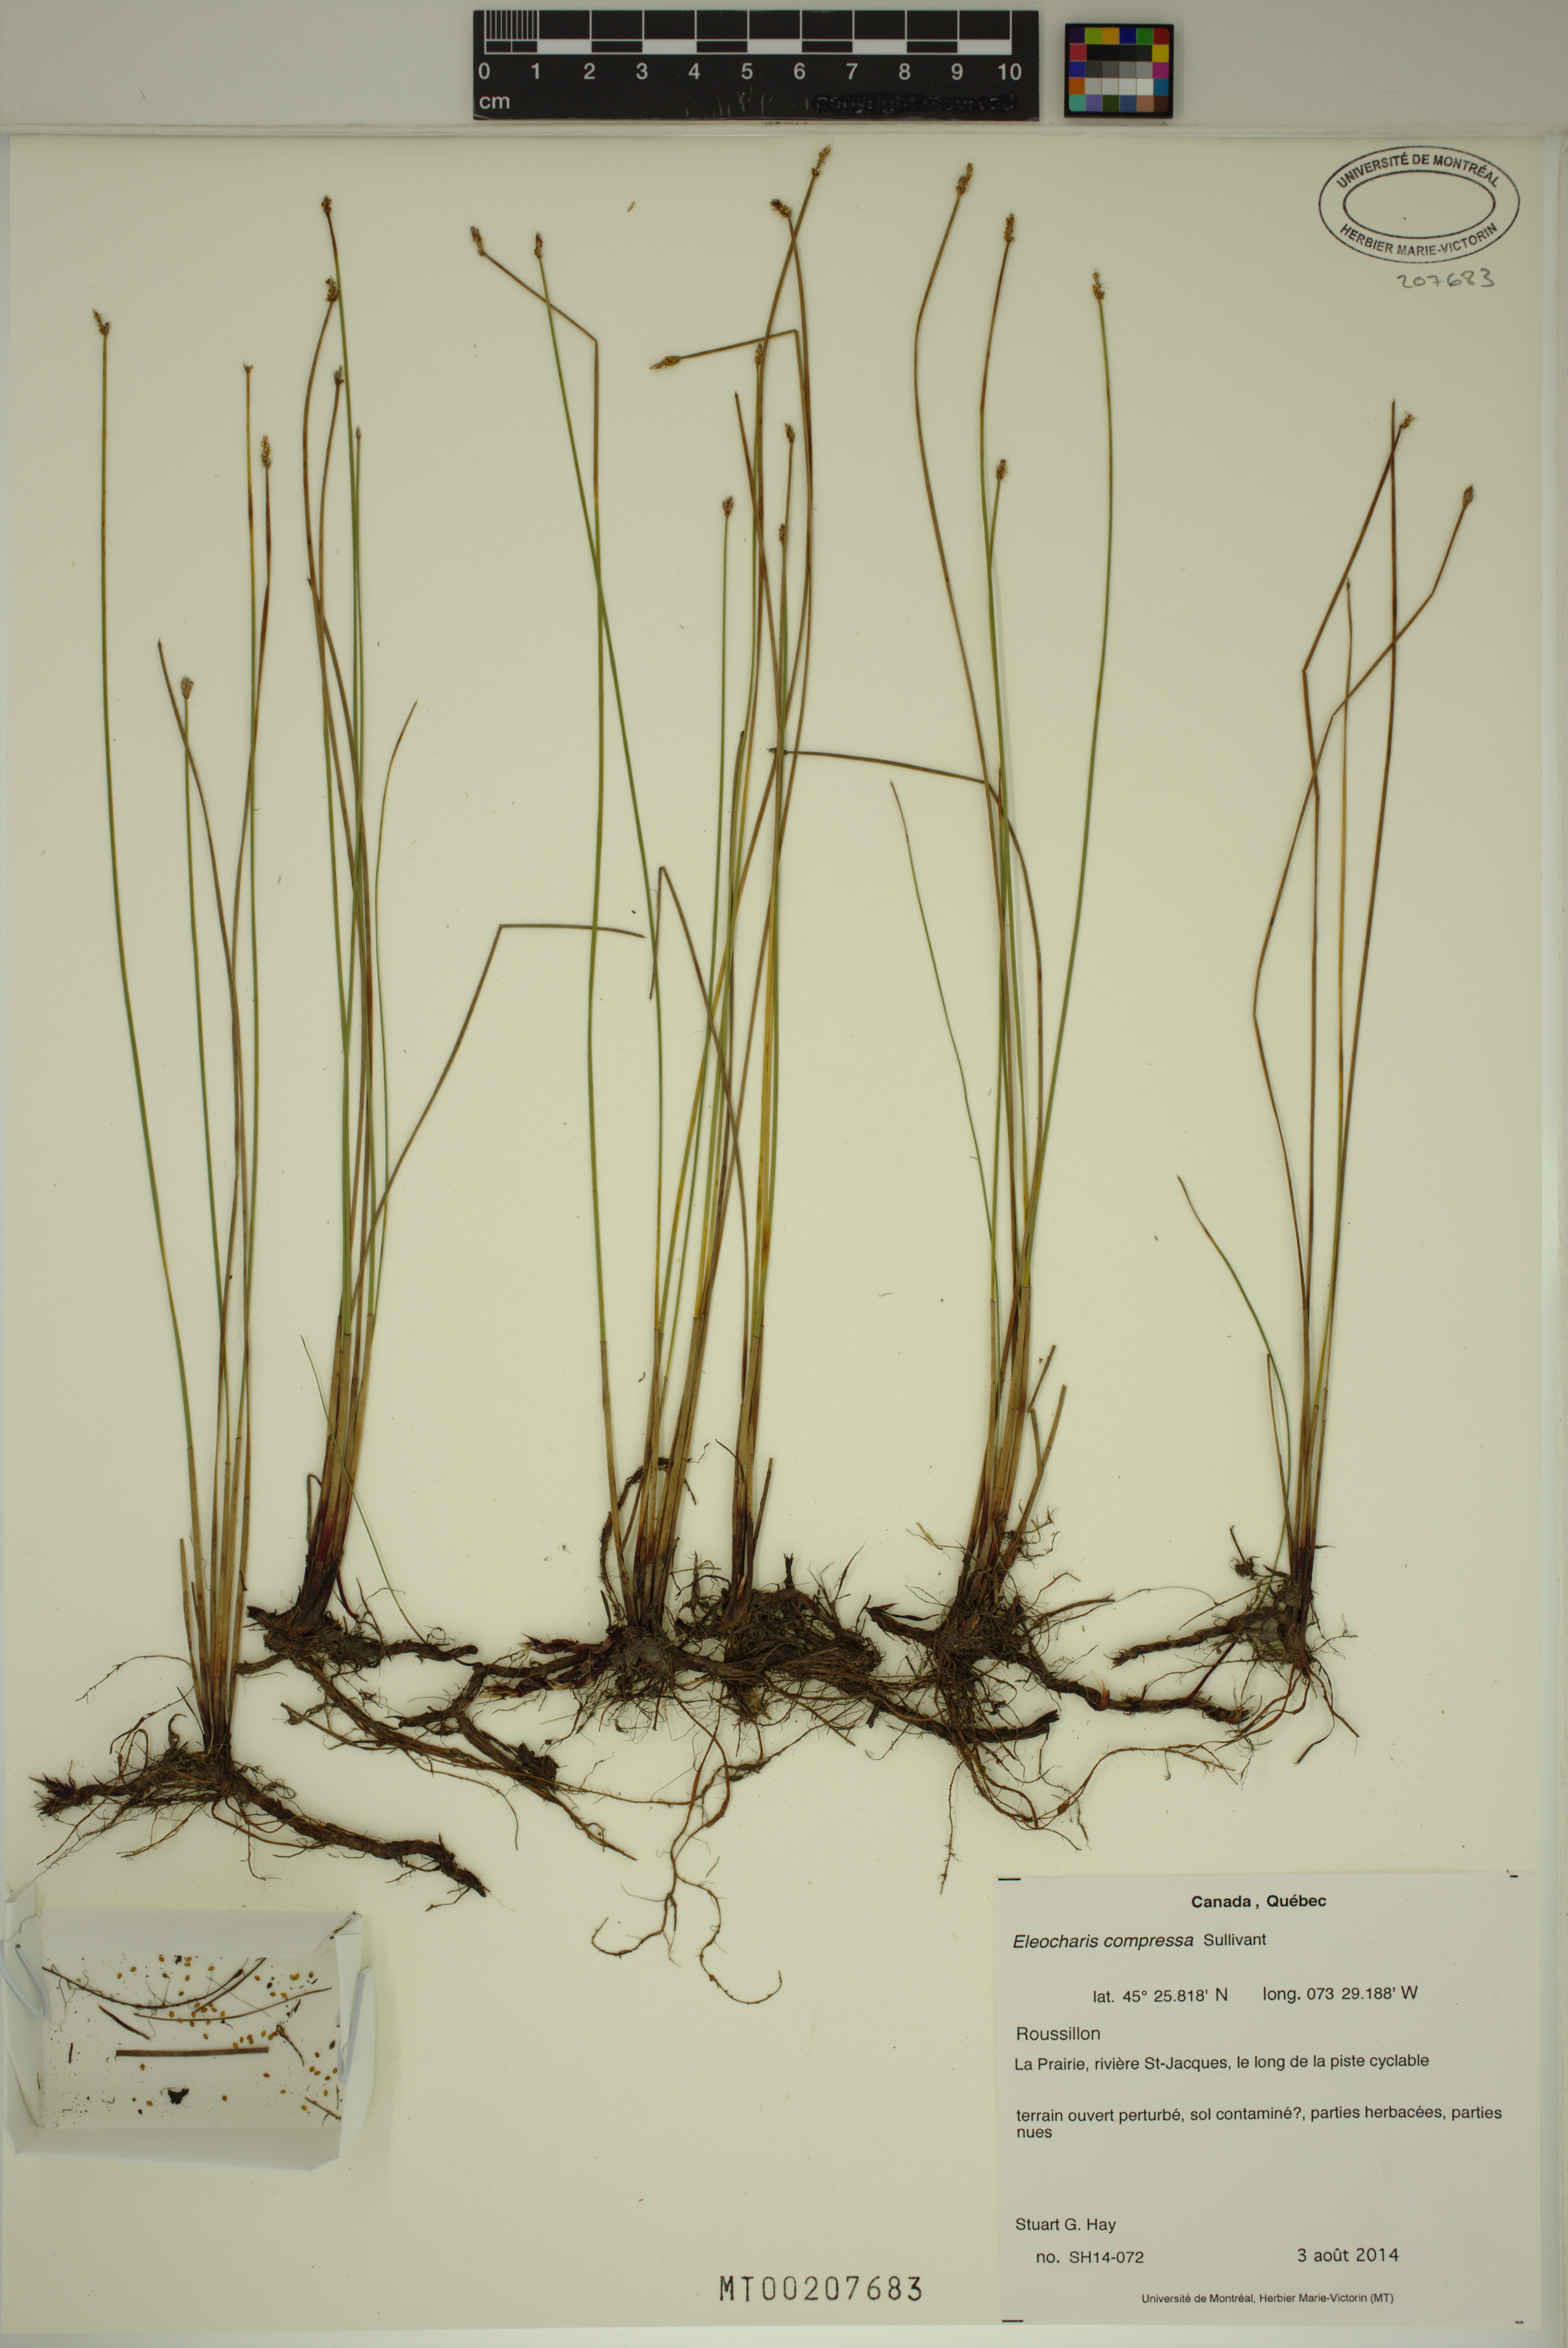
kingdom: Plantae
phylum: Tracheophyta
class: Liliopsida
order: Poales
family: Cyperaceae
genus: Eleocharis
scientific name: Eleocharis compressa
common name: Flat-stem spike-rush
